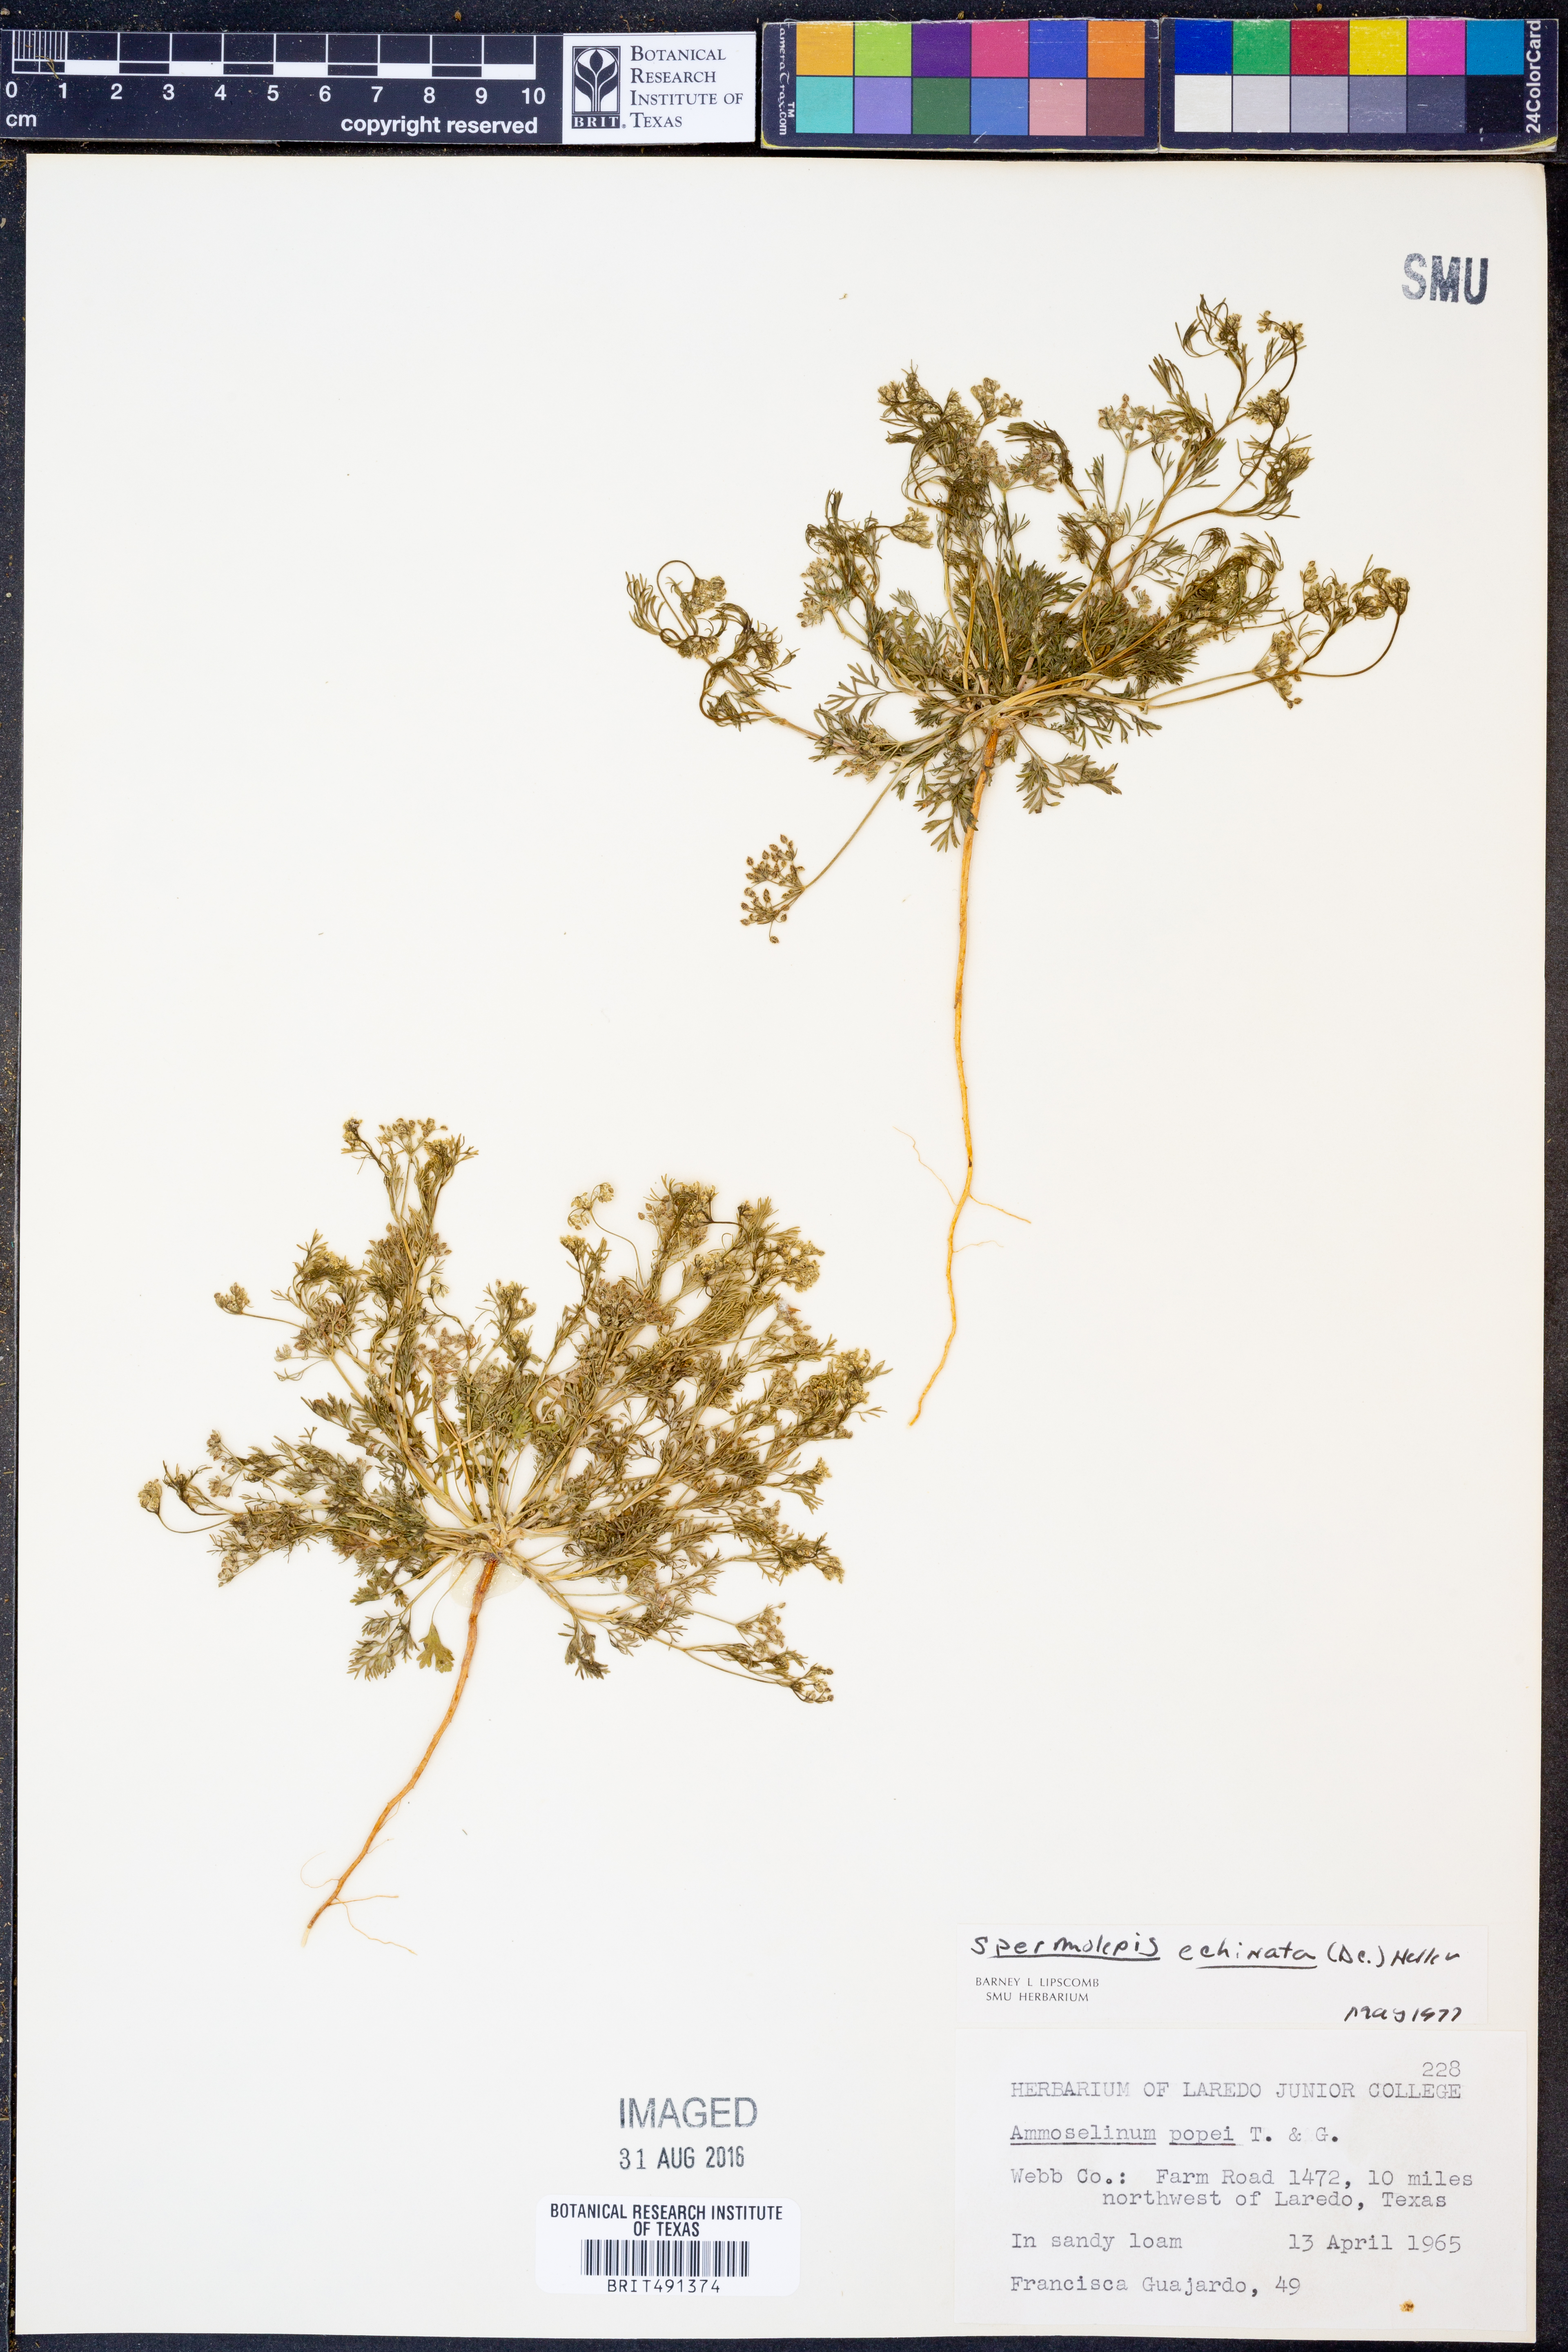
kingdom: Plantae
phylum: Tracheophyta
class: Magnoliopsida
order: Apiales
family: Apiaceae
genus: Spermolepis
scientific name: Spermolepis echinata
